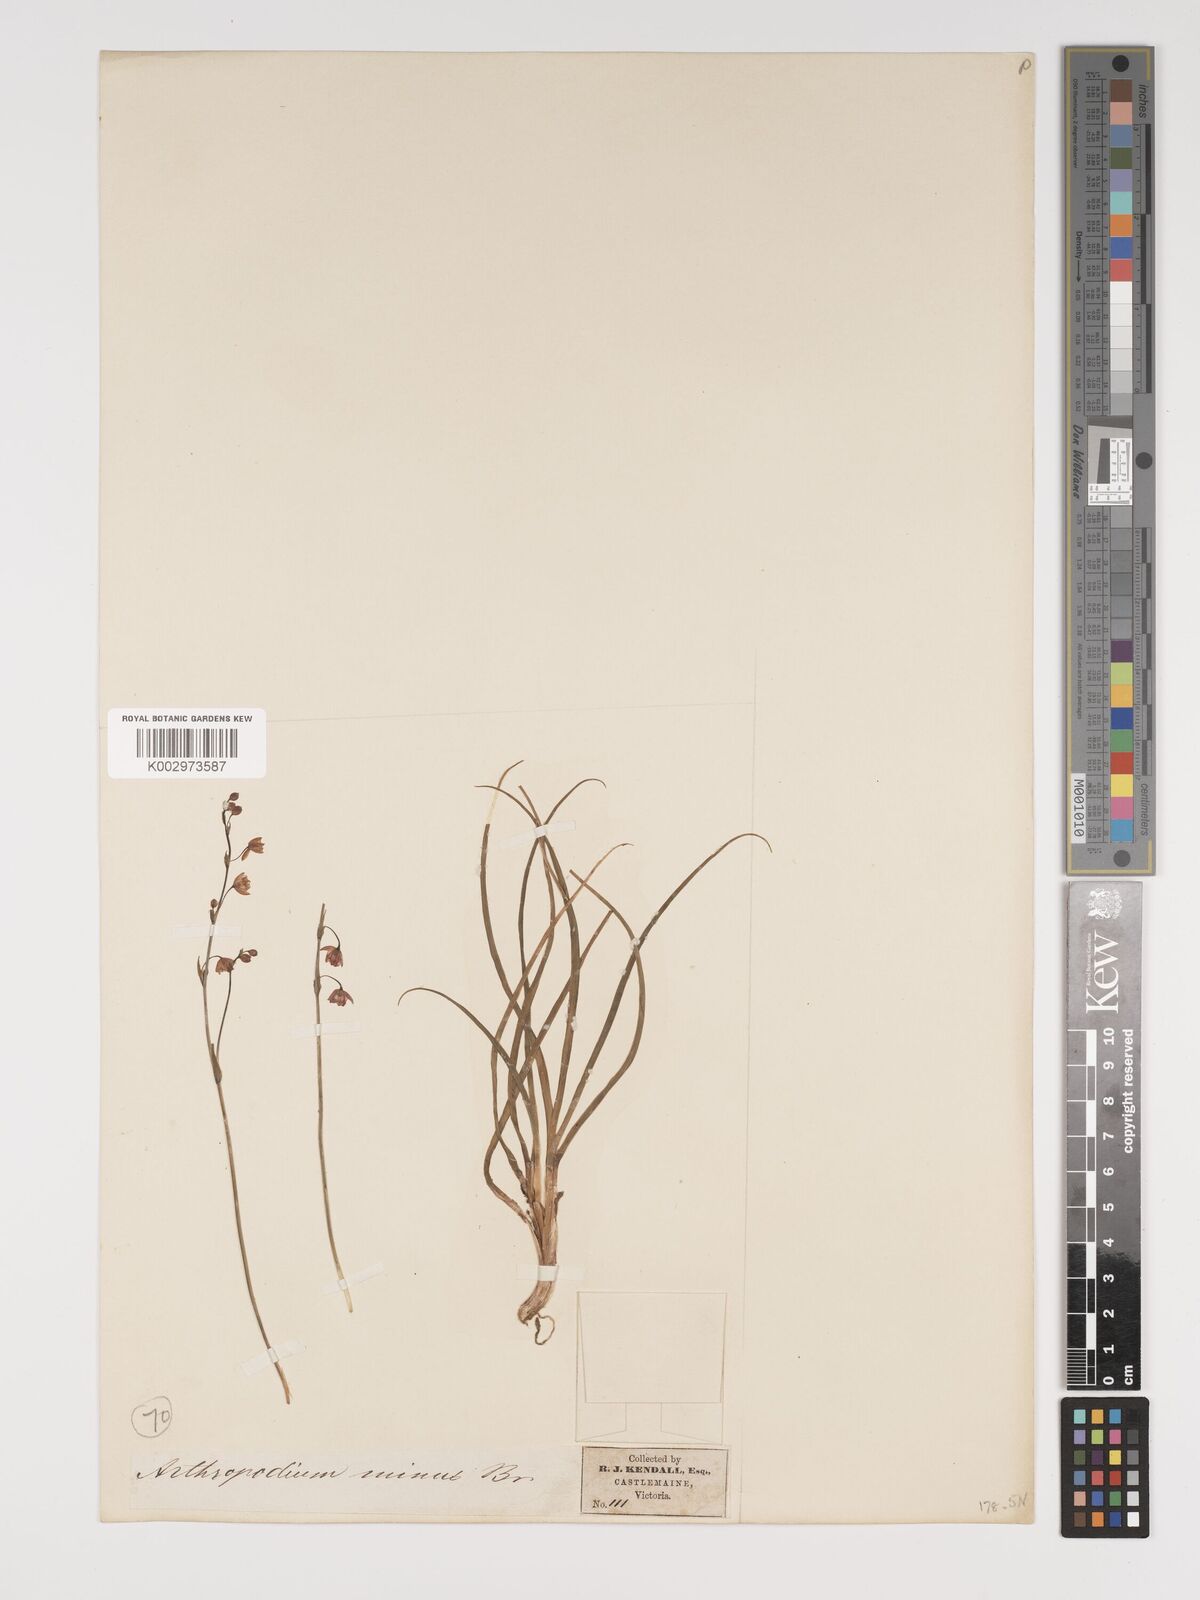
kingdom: Plantae
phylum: Tracheophyta
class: Liliopsida
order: Asparagales
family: Asparagaceae
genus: Arthropodium
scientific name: Arthropodium minus
